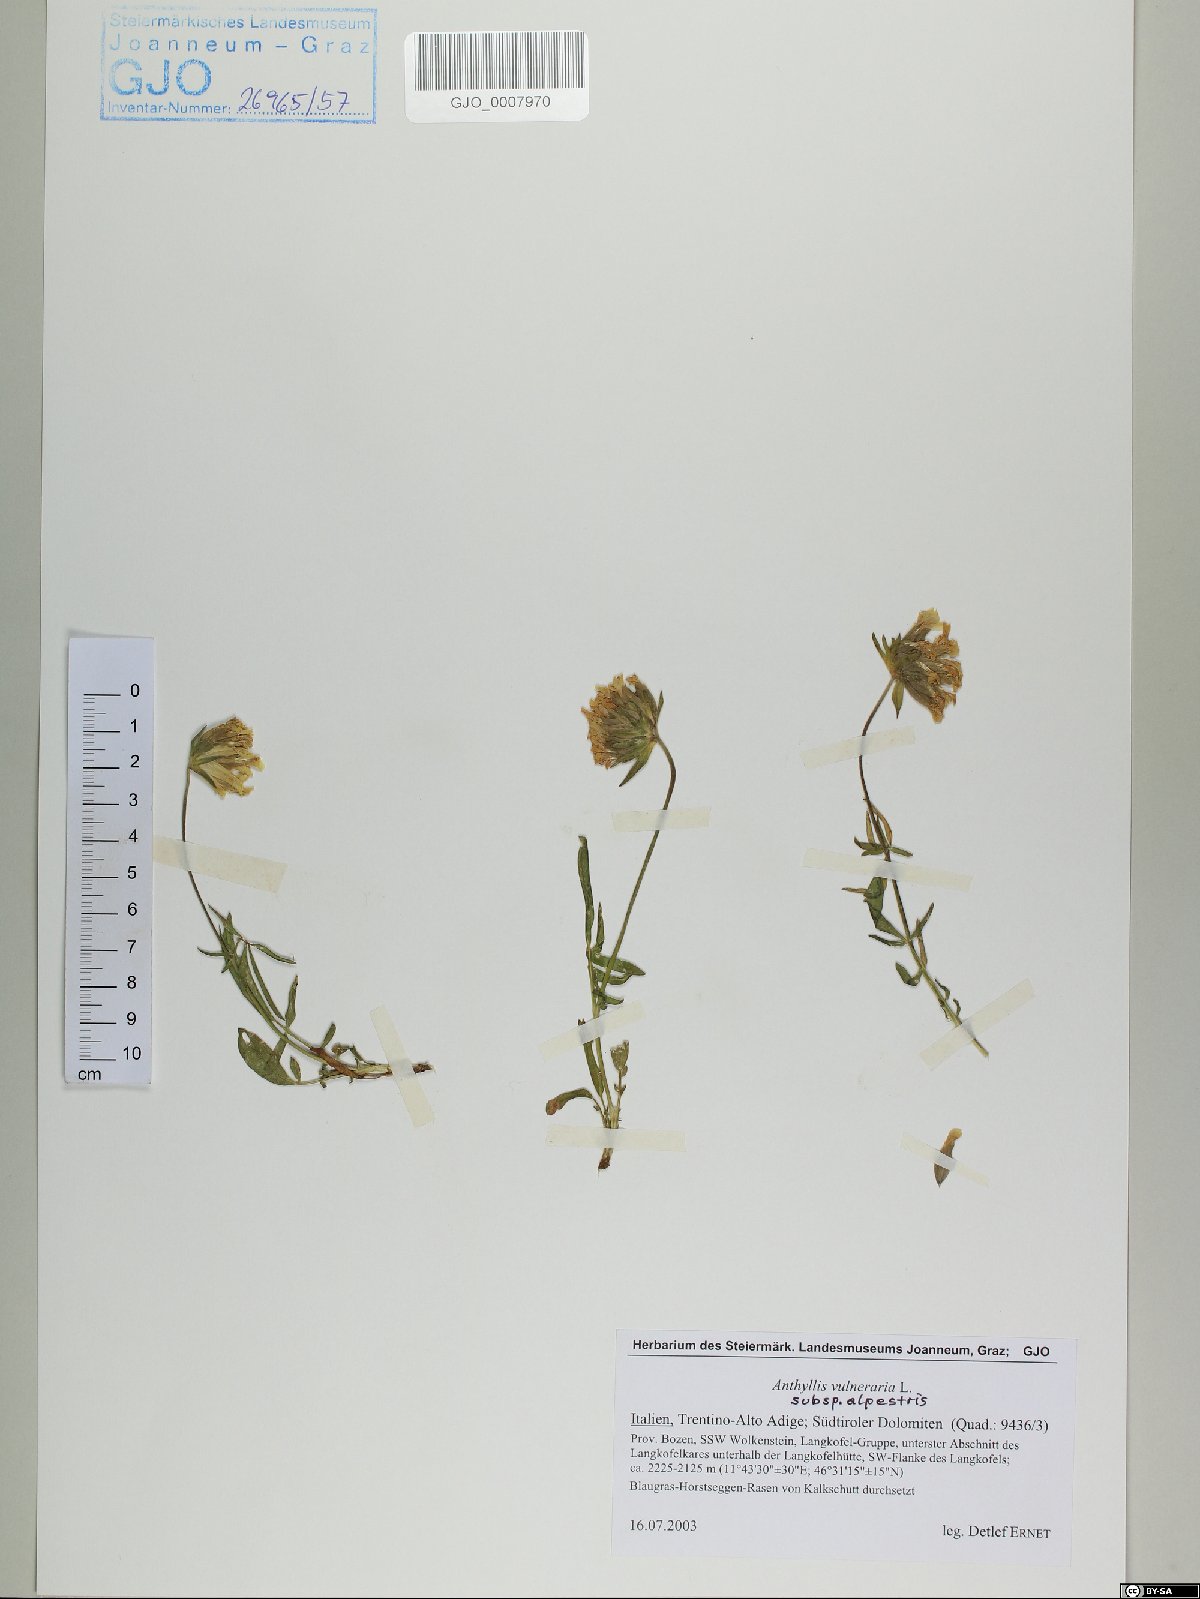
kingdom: Plantae
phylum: Tracheophyta
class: Magnoliopsida
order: Fabales
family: Fabaceae
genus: Anthyllis
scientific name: Anthyllis vulneraria
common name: Kidney vetch
